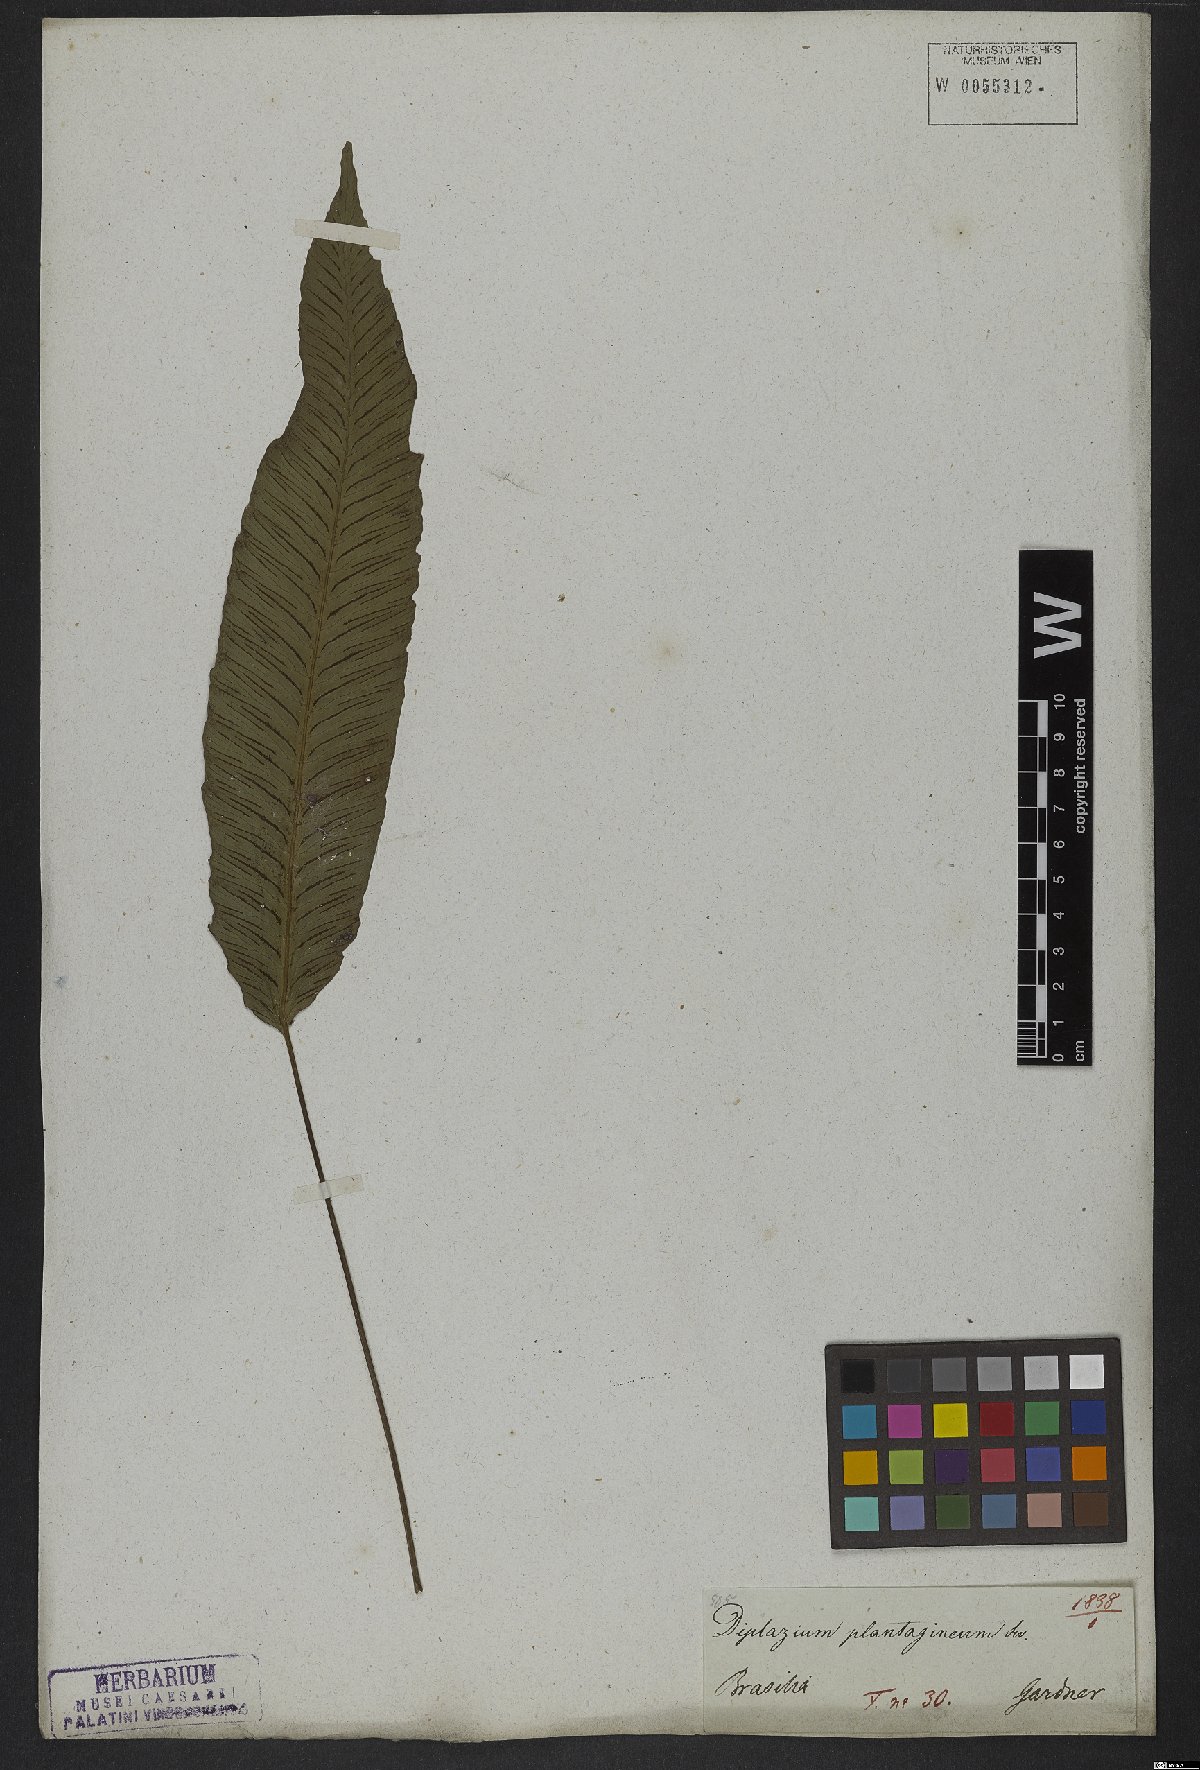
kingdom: Plantae
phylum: Tracheophyta
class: Polypodiopsida
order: Polypodiales
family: Athyriaceae
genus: Diplazium
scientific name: Diplazium plantaginifolium
